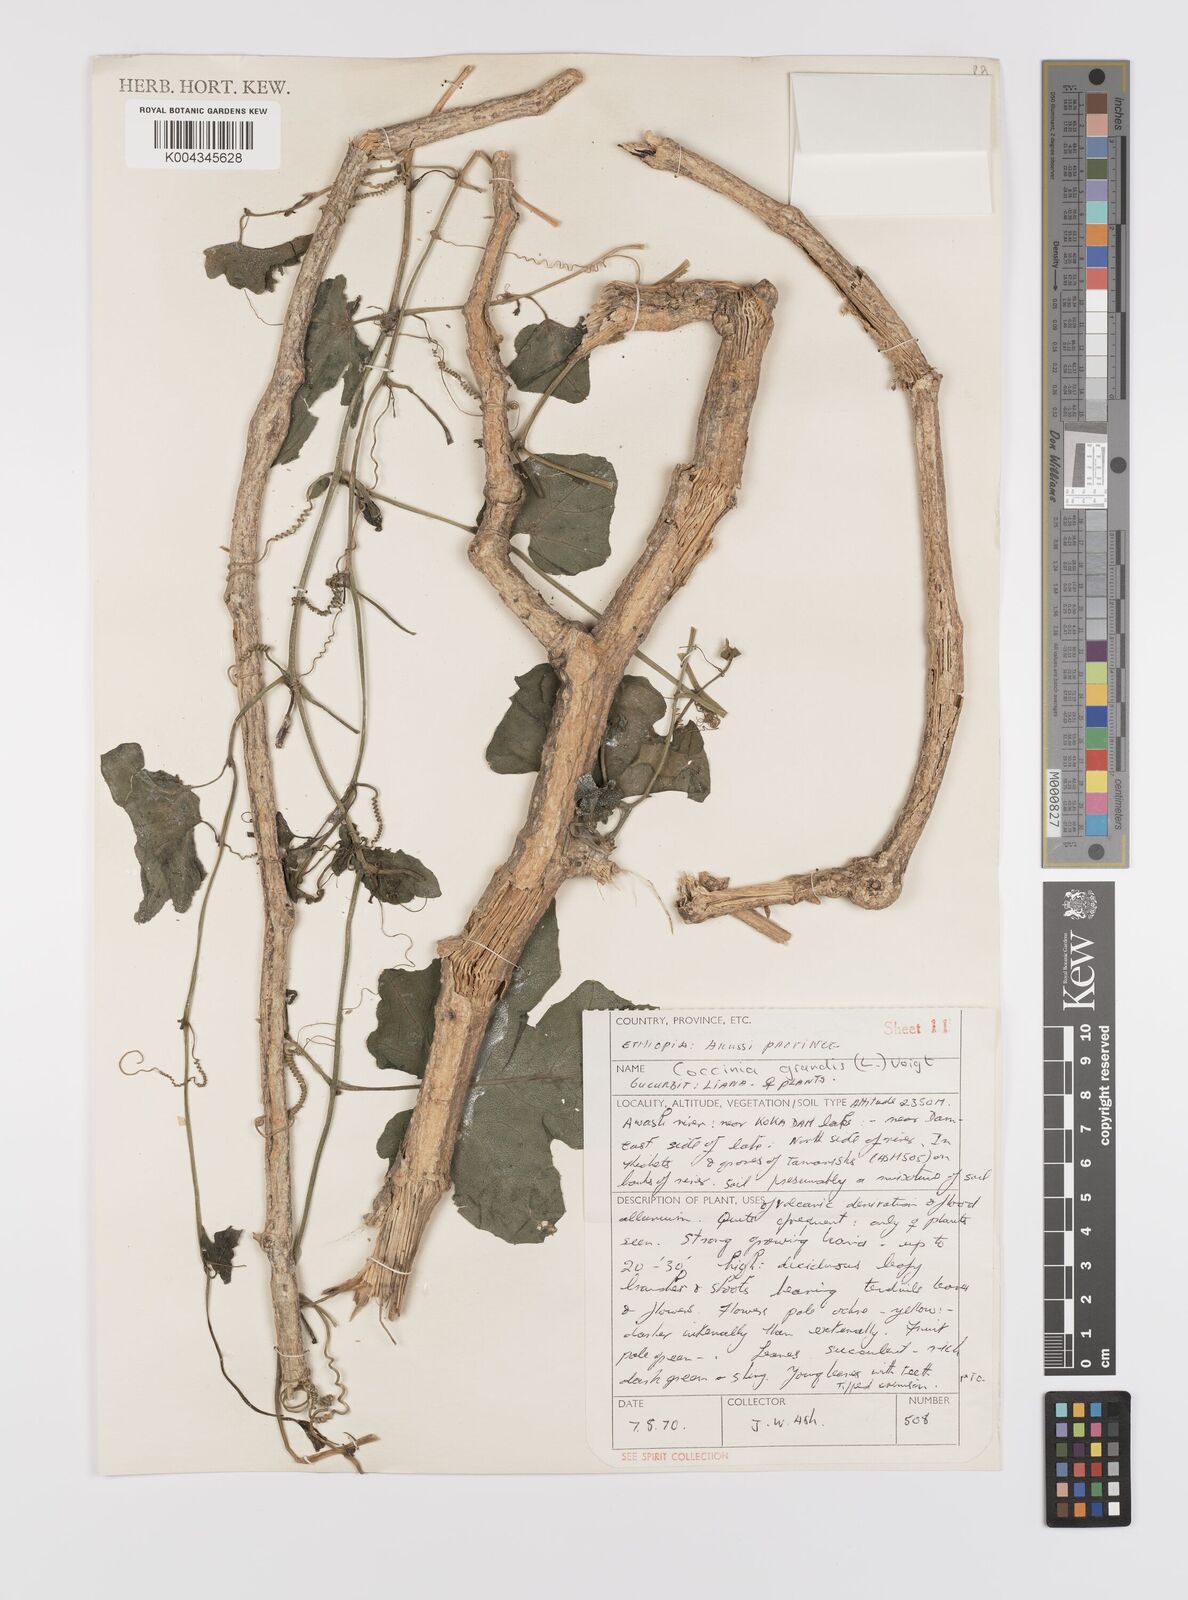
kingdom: Plantae
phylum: Tracheophyta
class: Magnoliopsida
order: Cucurbitales
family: Cucurbitaceae
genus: Coccinia
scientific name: Coccinia grandis
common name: Ivy gourd
